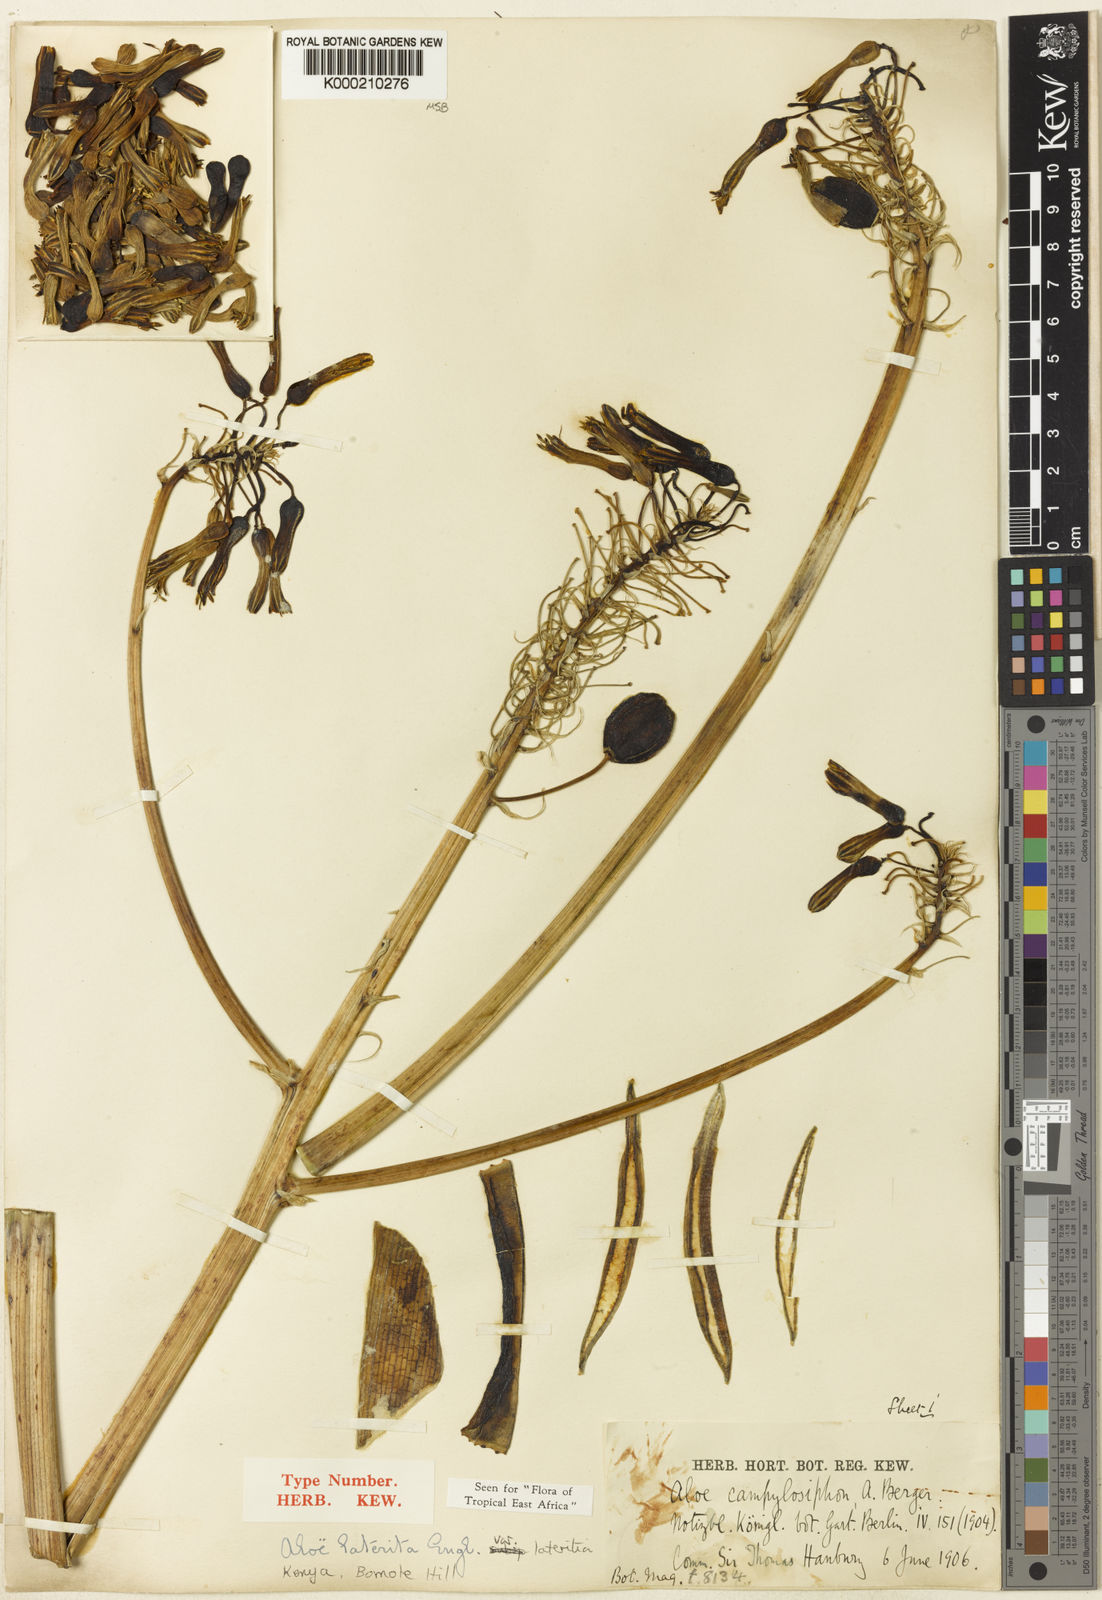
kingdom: Plantae
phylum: Tracheophyta
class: Liliopsida
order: Asparagales
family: Asphodelaceae
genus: Aloe
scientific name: Aloe lateritia
